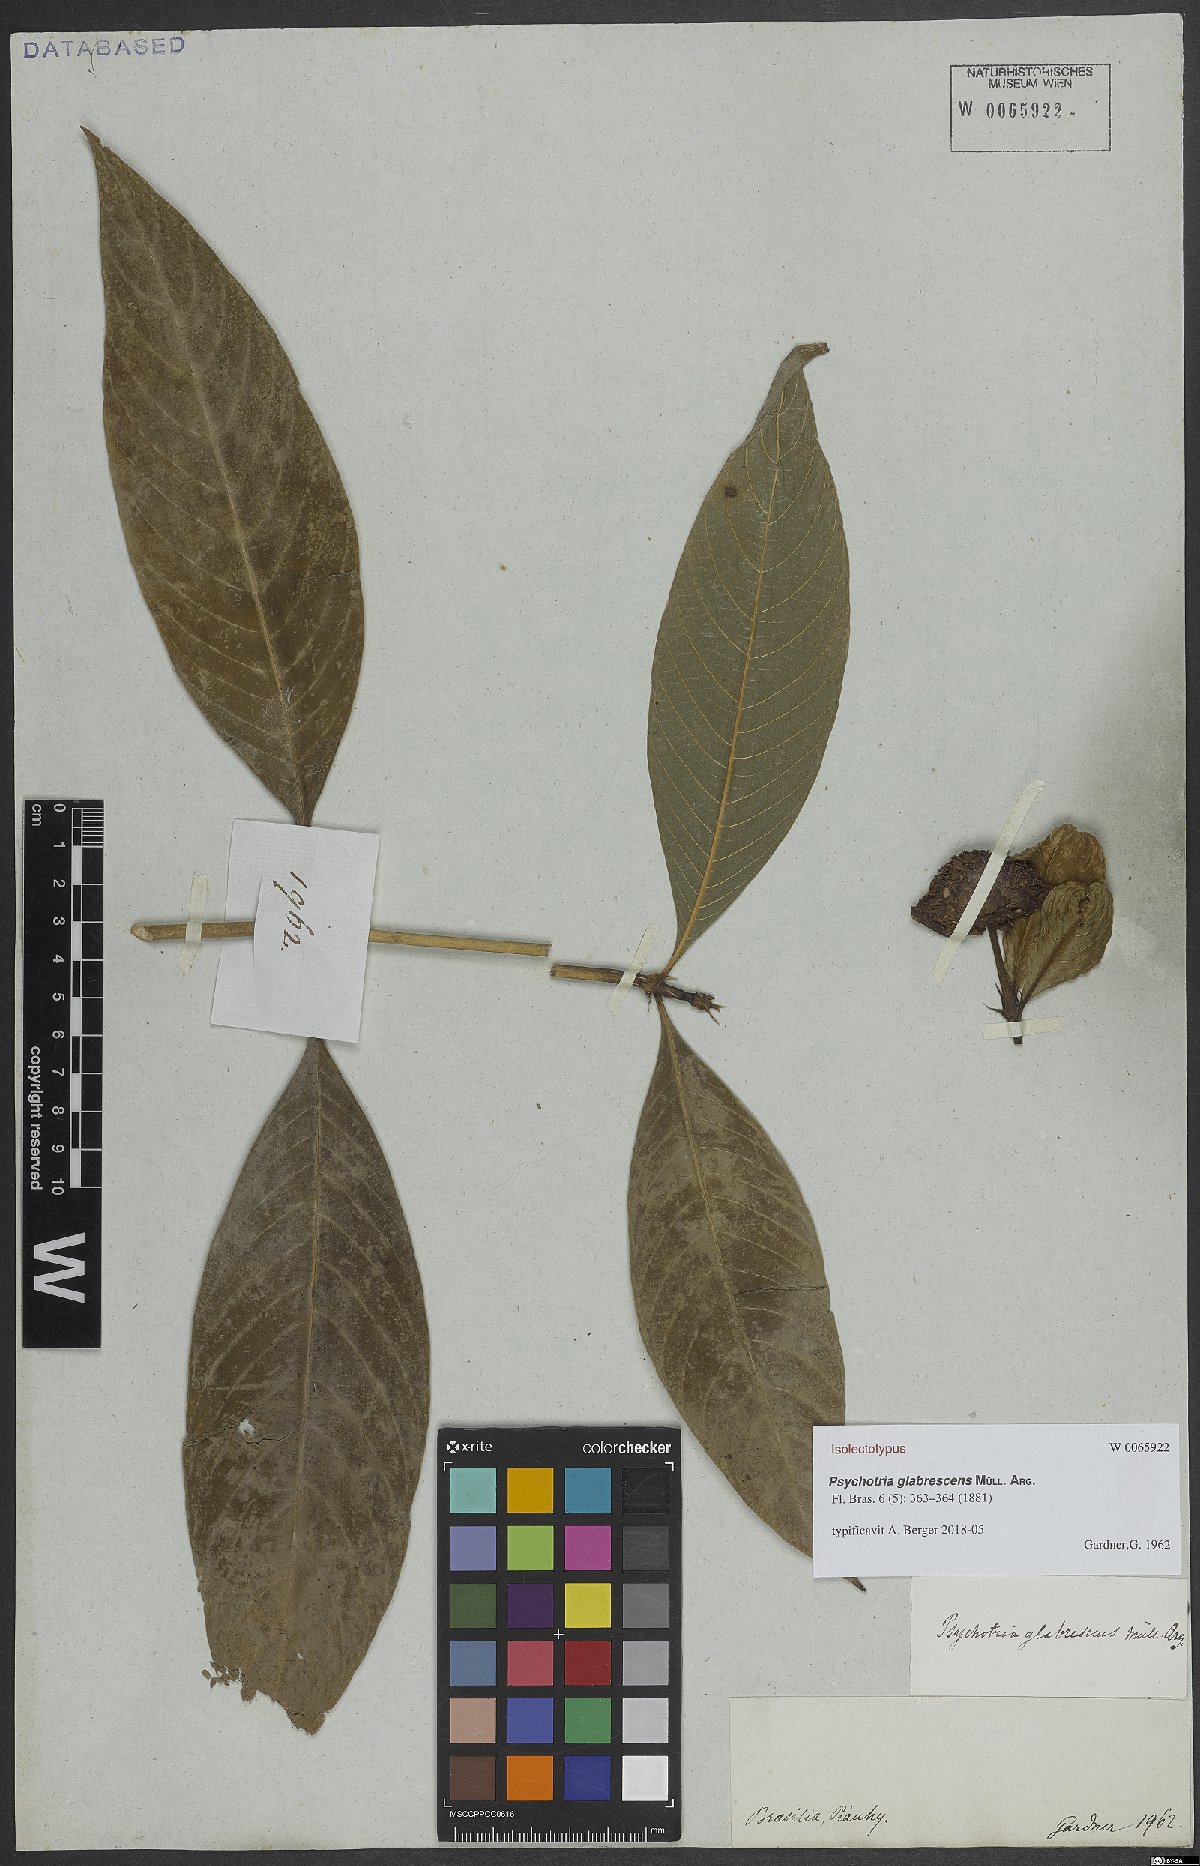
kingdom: Plantae
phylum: Tracheophyta
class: Magnoliopsida
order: Gentianales
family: Rubiaceae
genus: Palicourea
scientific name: Palicourea colorata
